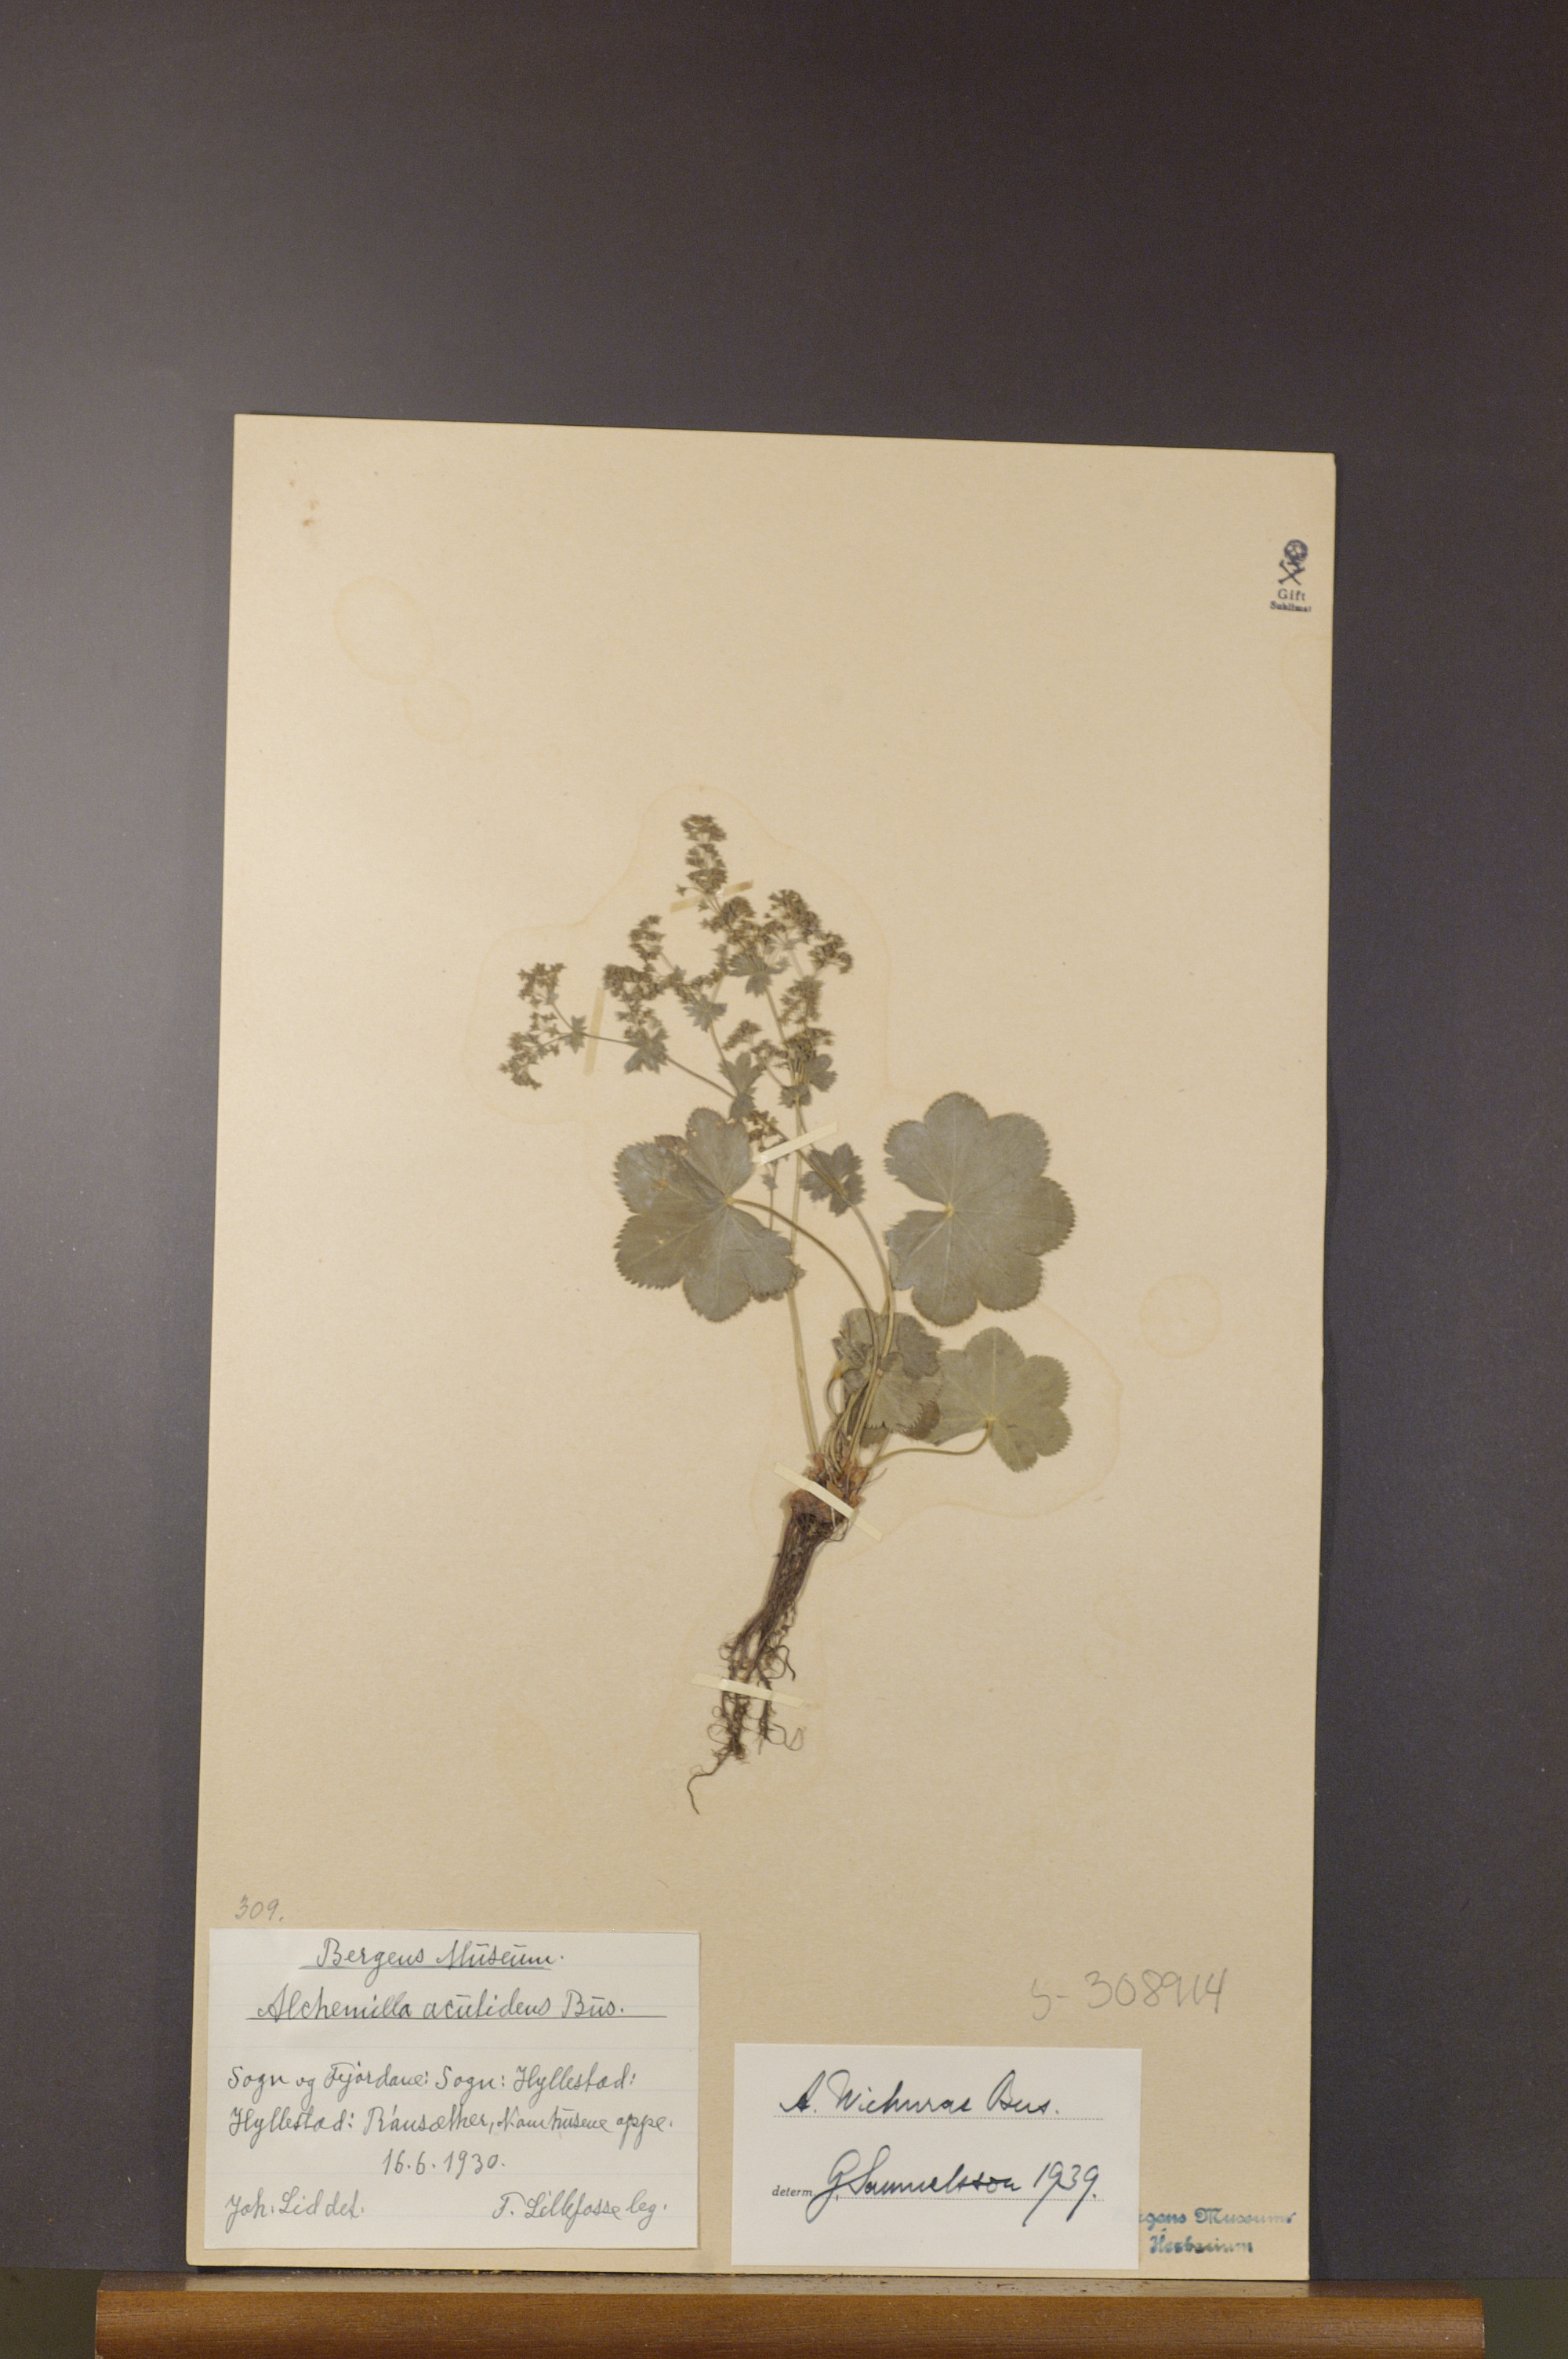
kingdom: Plantae
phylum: Tracheophyta
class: Magnoliopsida
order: Rosales
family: Rosaceae
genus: Alchemilla
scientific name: Alchemilla wichurae
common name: Rock lady's mantle
